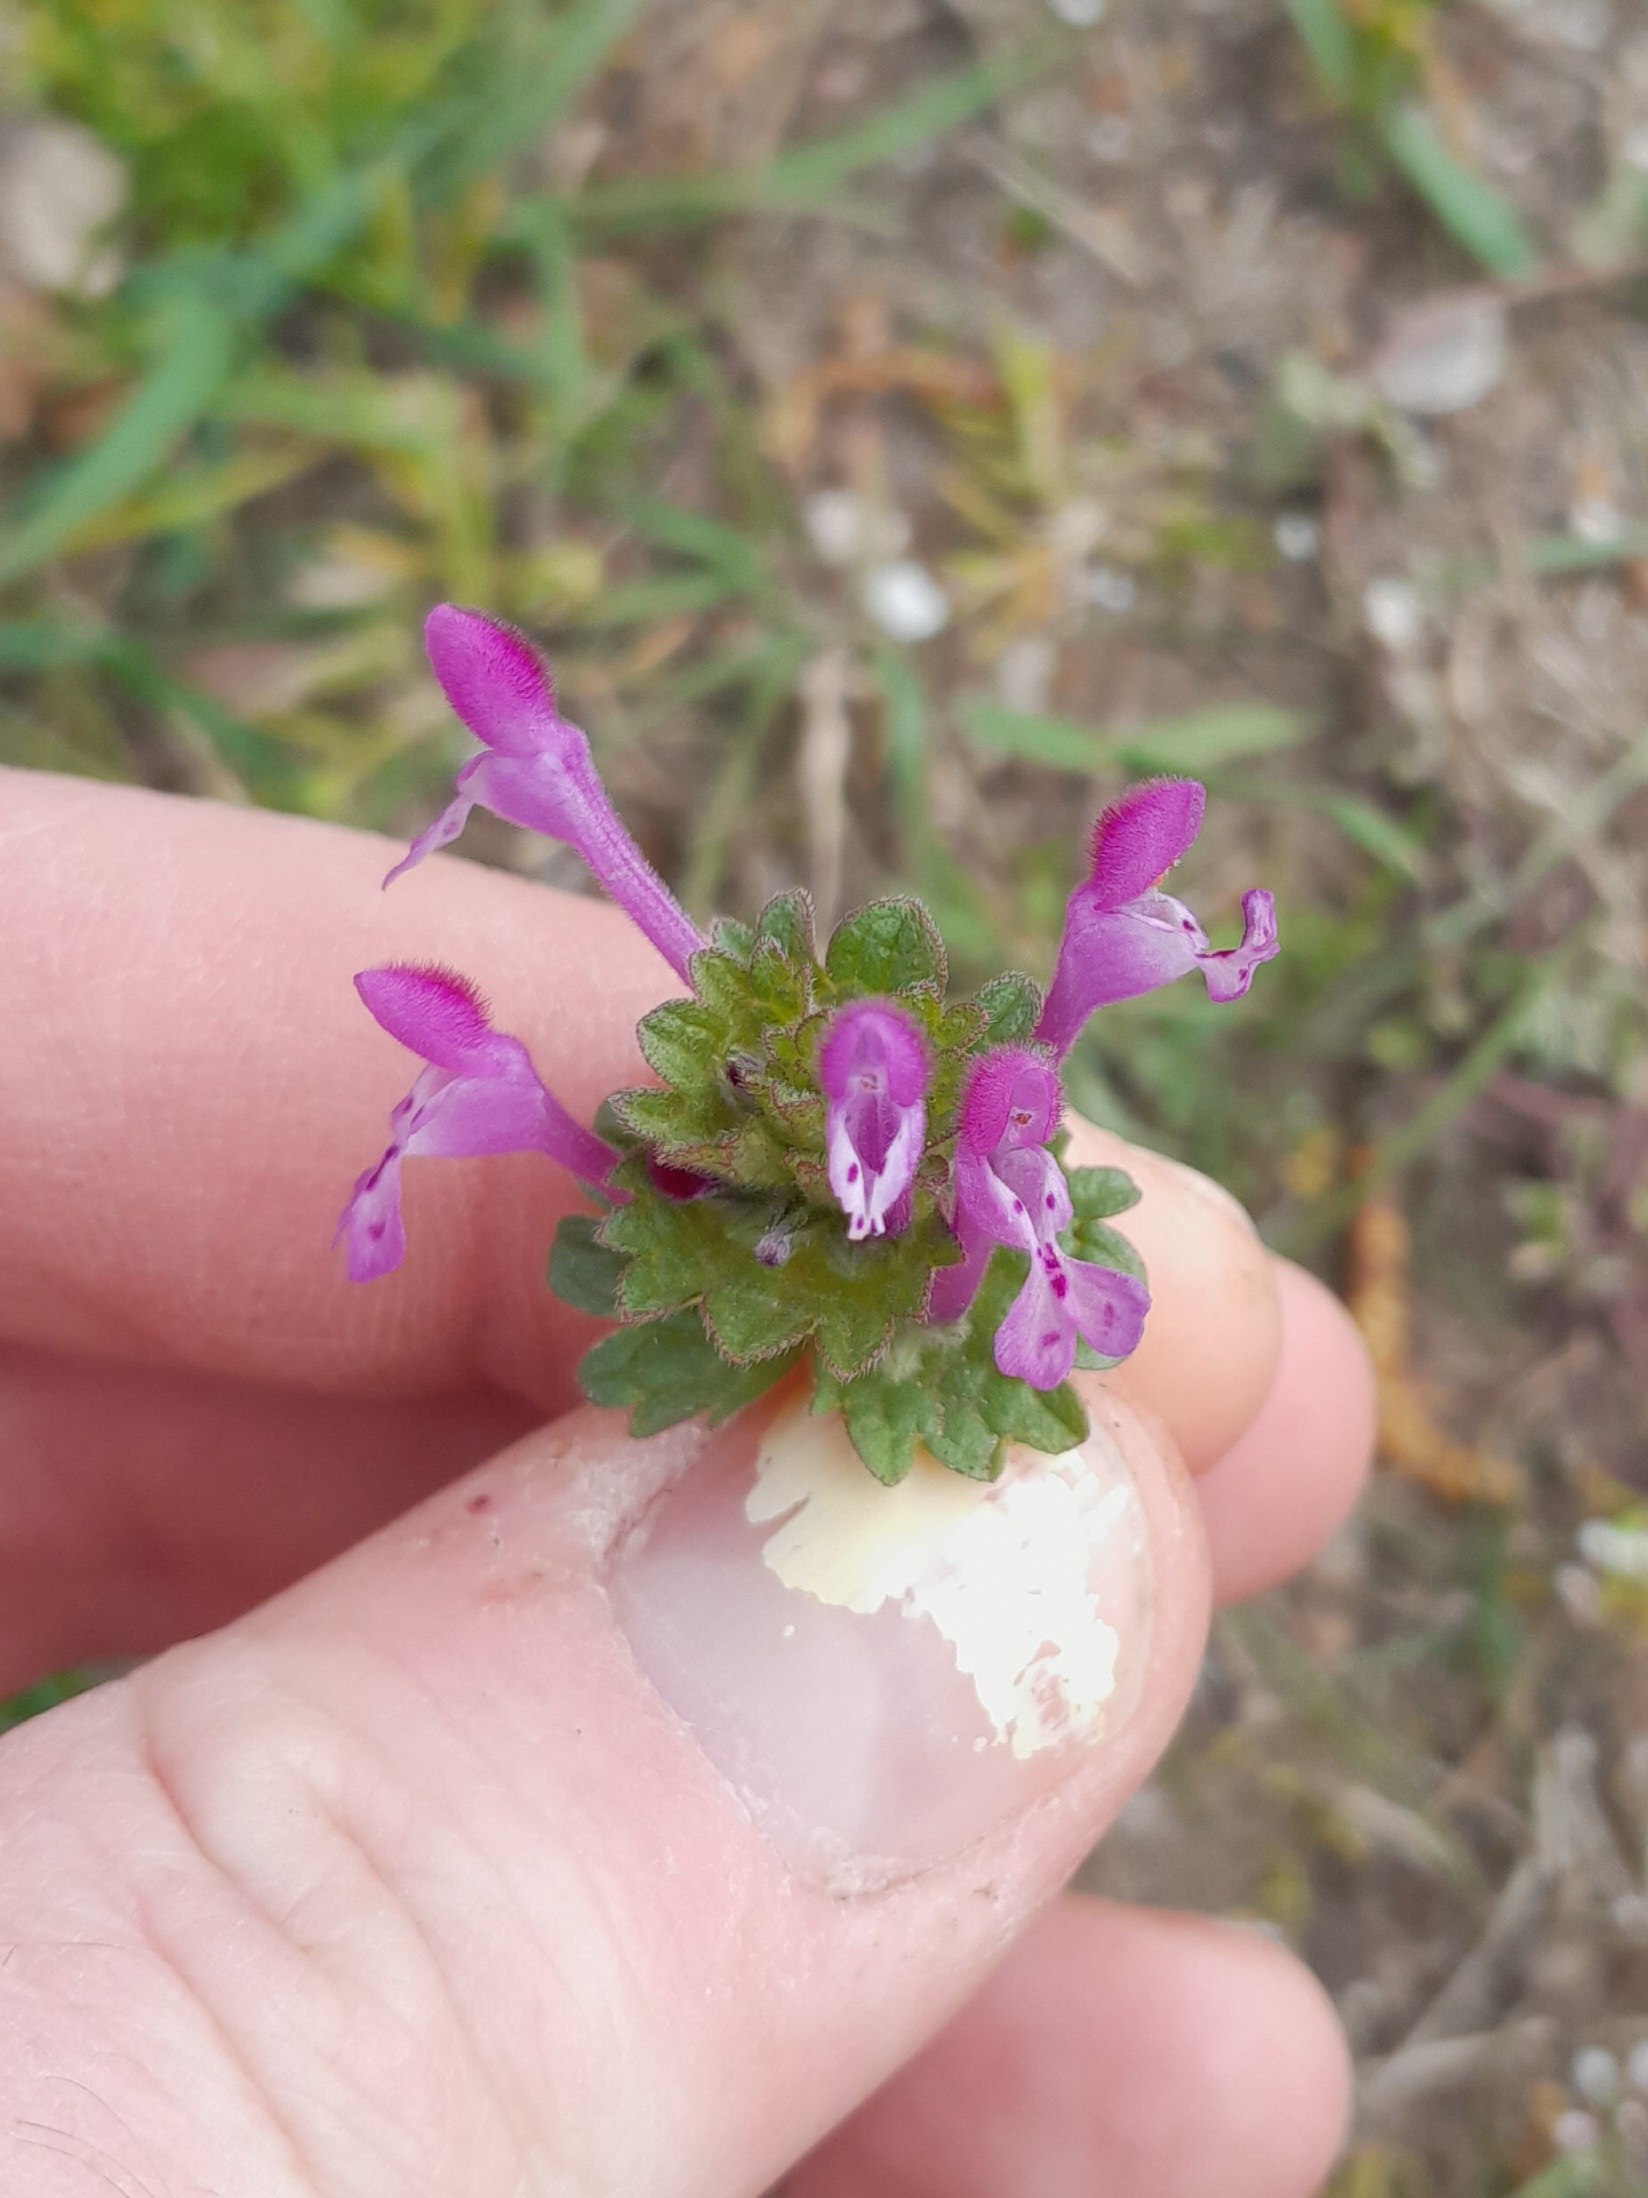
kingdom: Plantae
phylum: Tracheophyta
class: Magnoliopsida
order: Lamiales
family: Lamiaceae
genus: Lamium
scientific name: Lamium amplexicaule
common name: Liden tvetand
